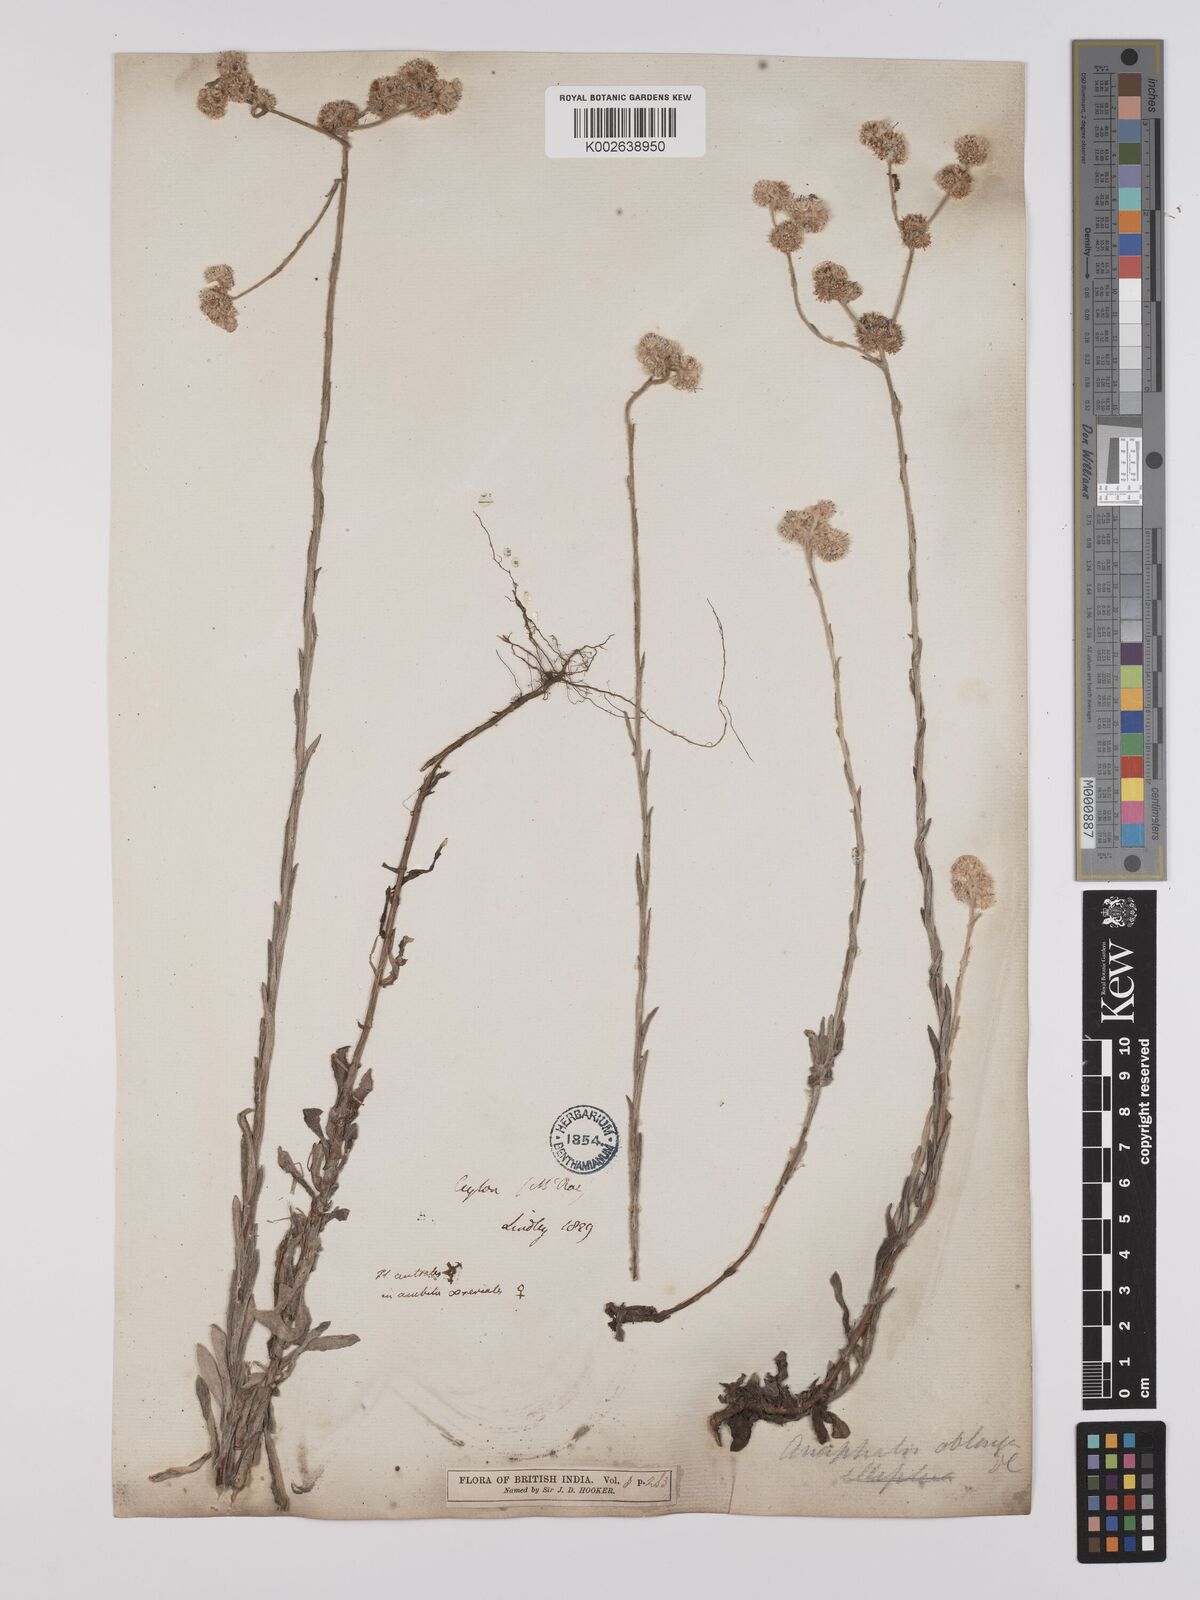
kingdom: Plantae
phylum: Tracheophyta
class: Magnoliopsida
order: Asterales
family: Asteraceae
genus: Anaphalis
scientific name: Anaphalis subdecurrens
